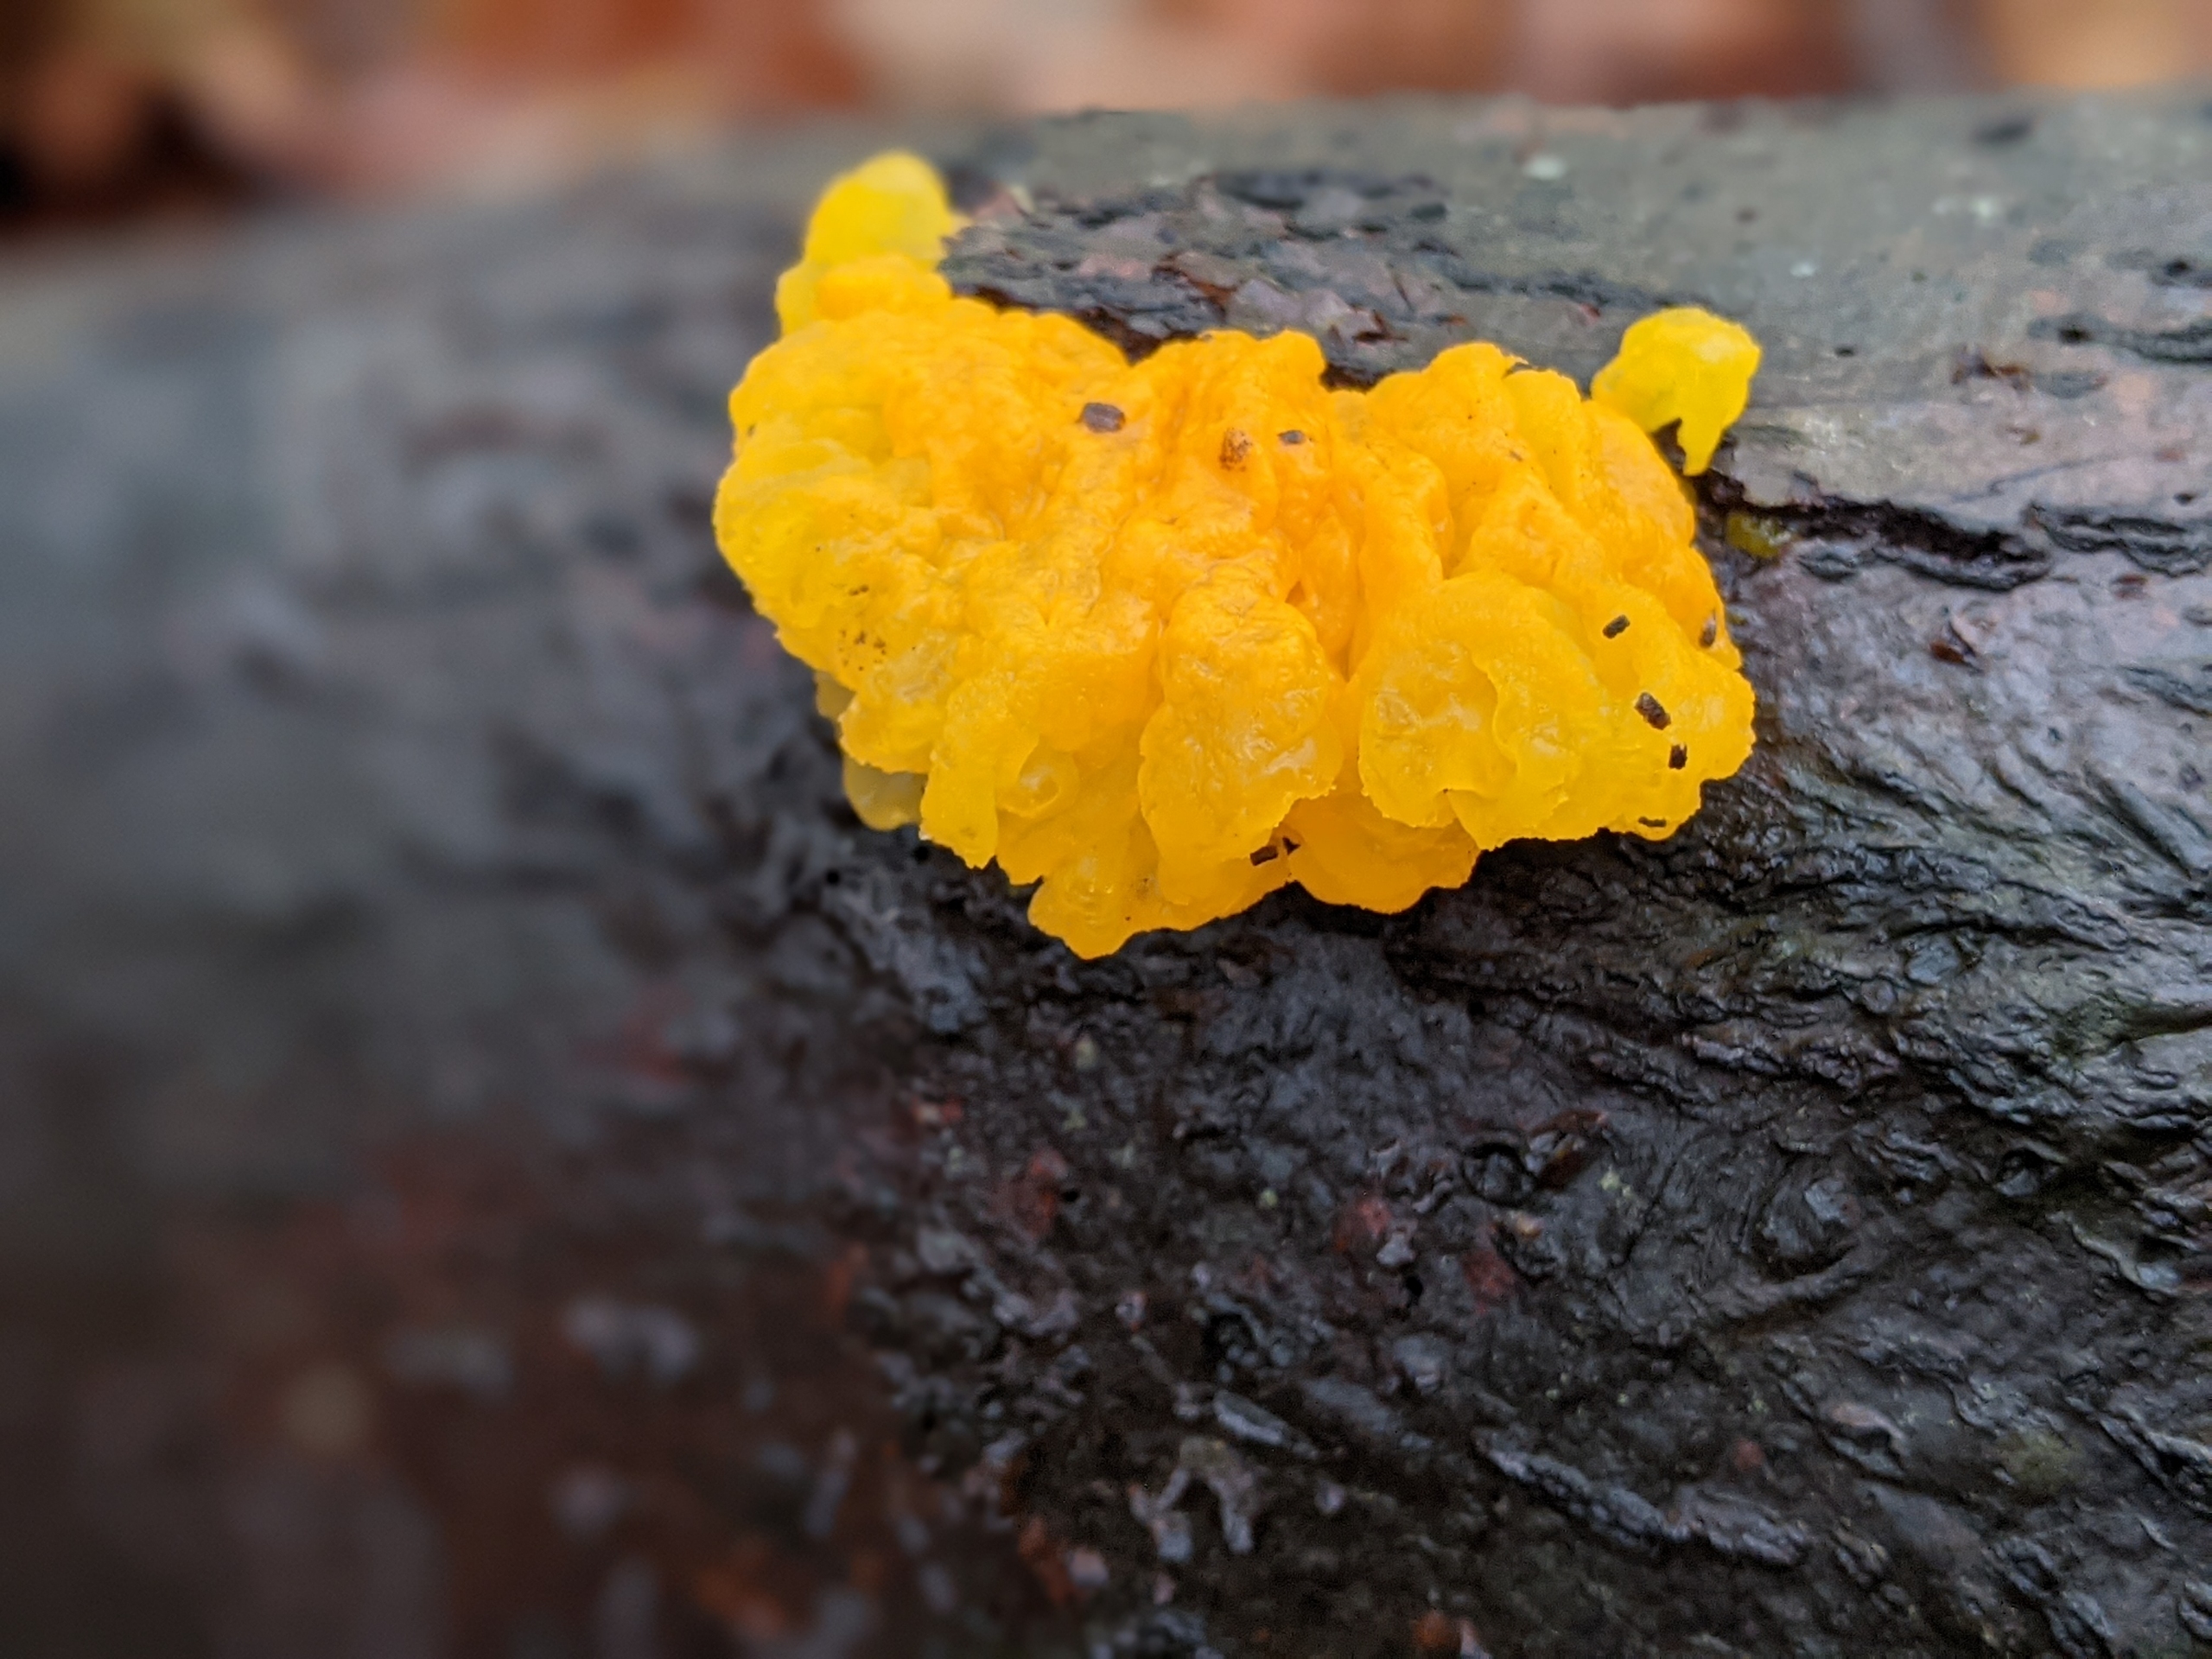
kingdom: Fungi
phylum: Basidiomycota
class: Tremellomycetes
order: Tremellales
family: Tremellaceae
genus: Tremella
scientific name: Tremella mesenterica
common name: Gul bævresvamp
